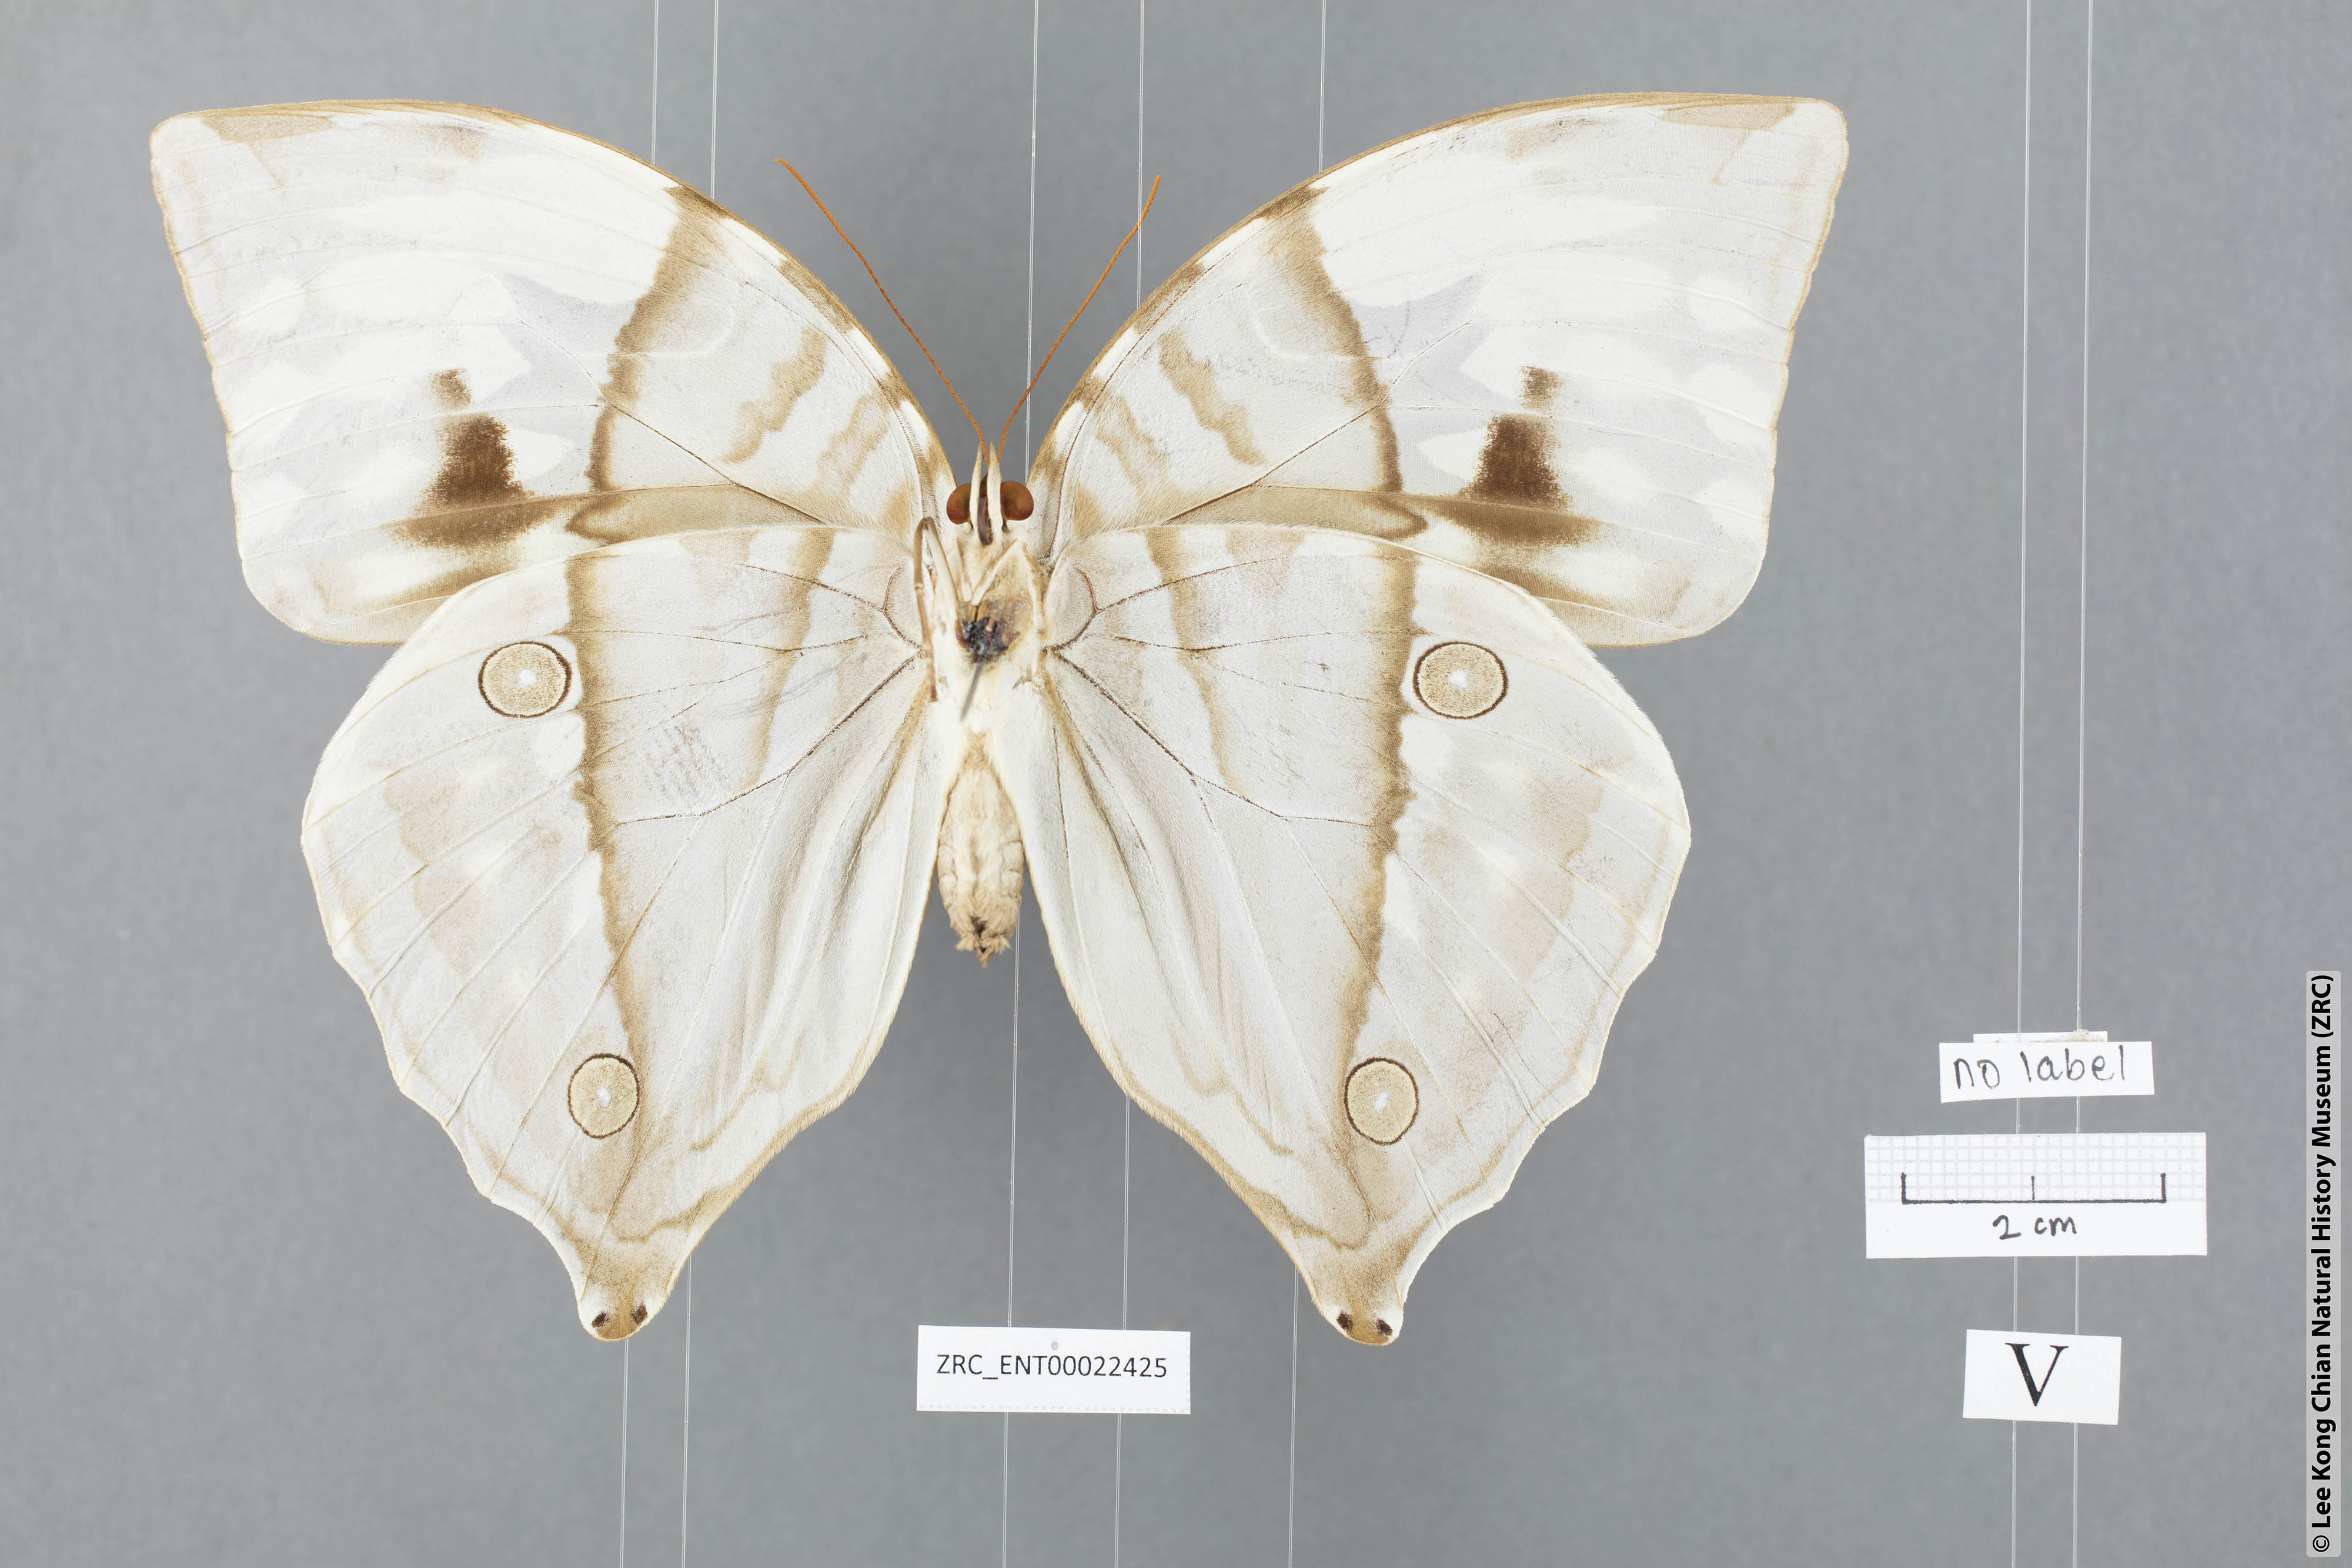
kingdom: Animalia
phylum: Arthropoda
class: Insecta
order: Lepidoptera
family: Nymphalidae
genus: Zeuxidia
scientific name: Zeuxidia aurelia
